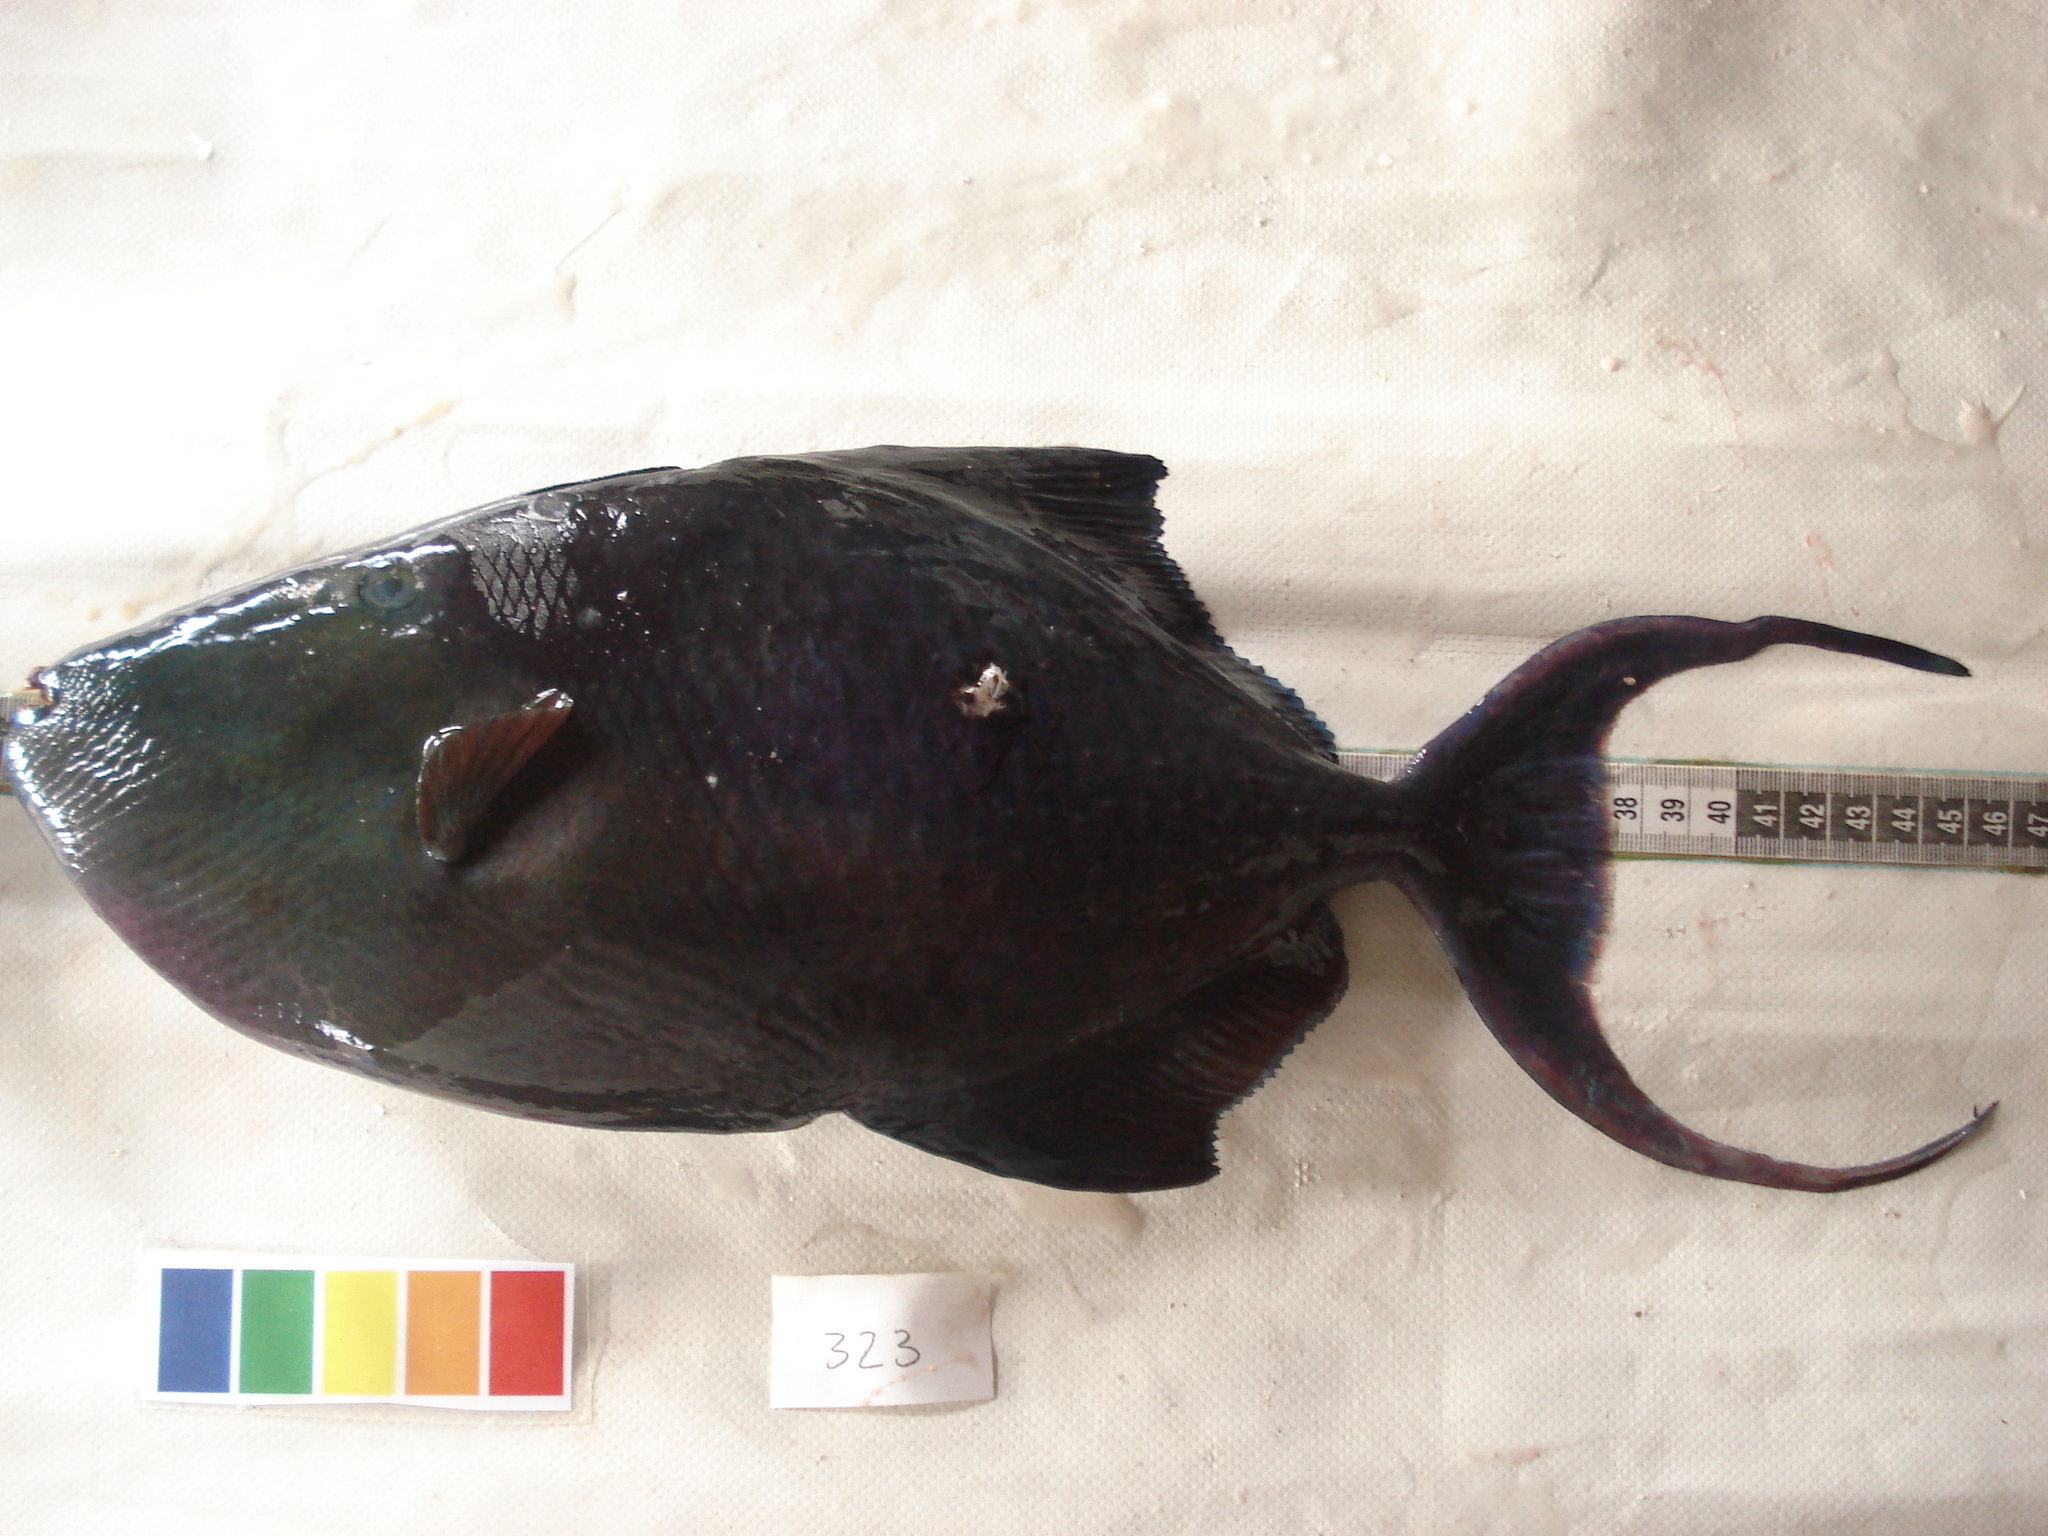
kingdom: Animalia
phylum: Chordata
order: Tetraodontiformes
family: Balistidae
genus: Odonus
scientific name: Odonus niger
